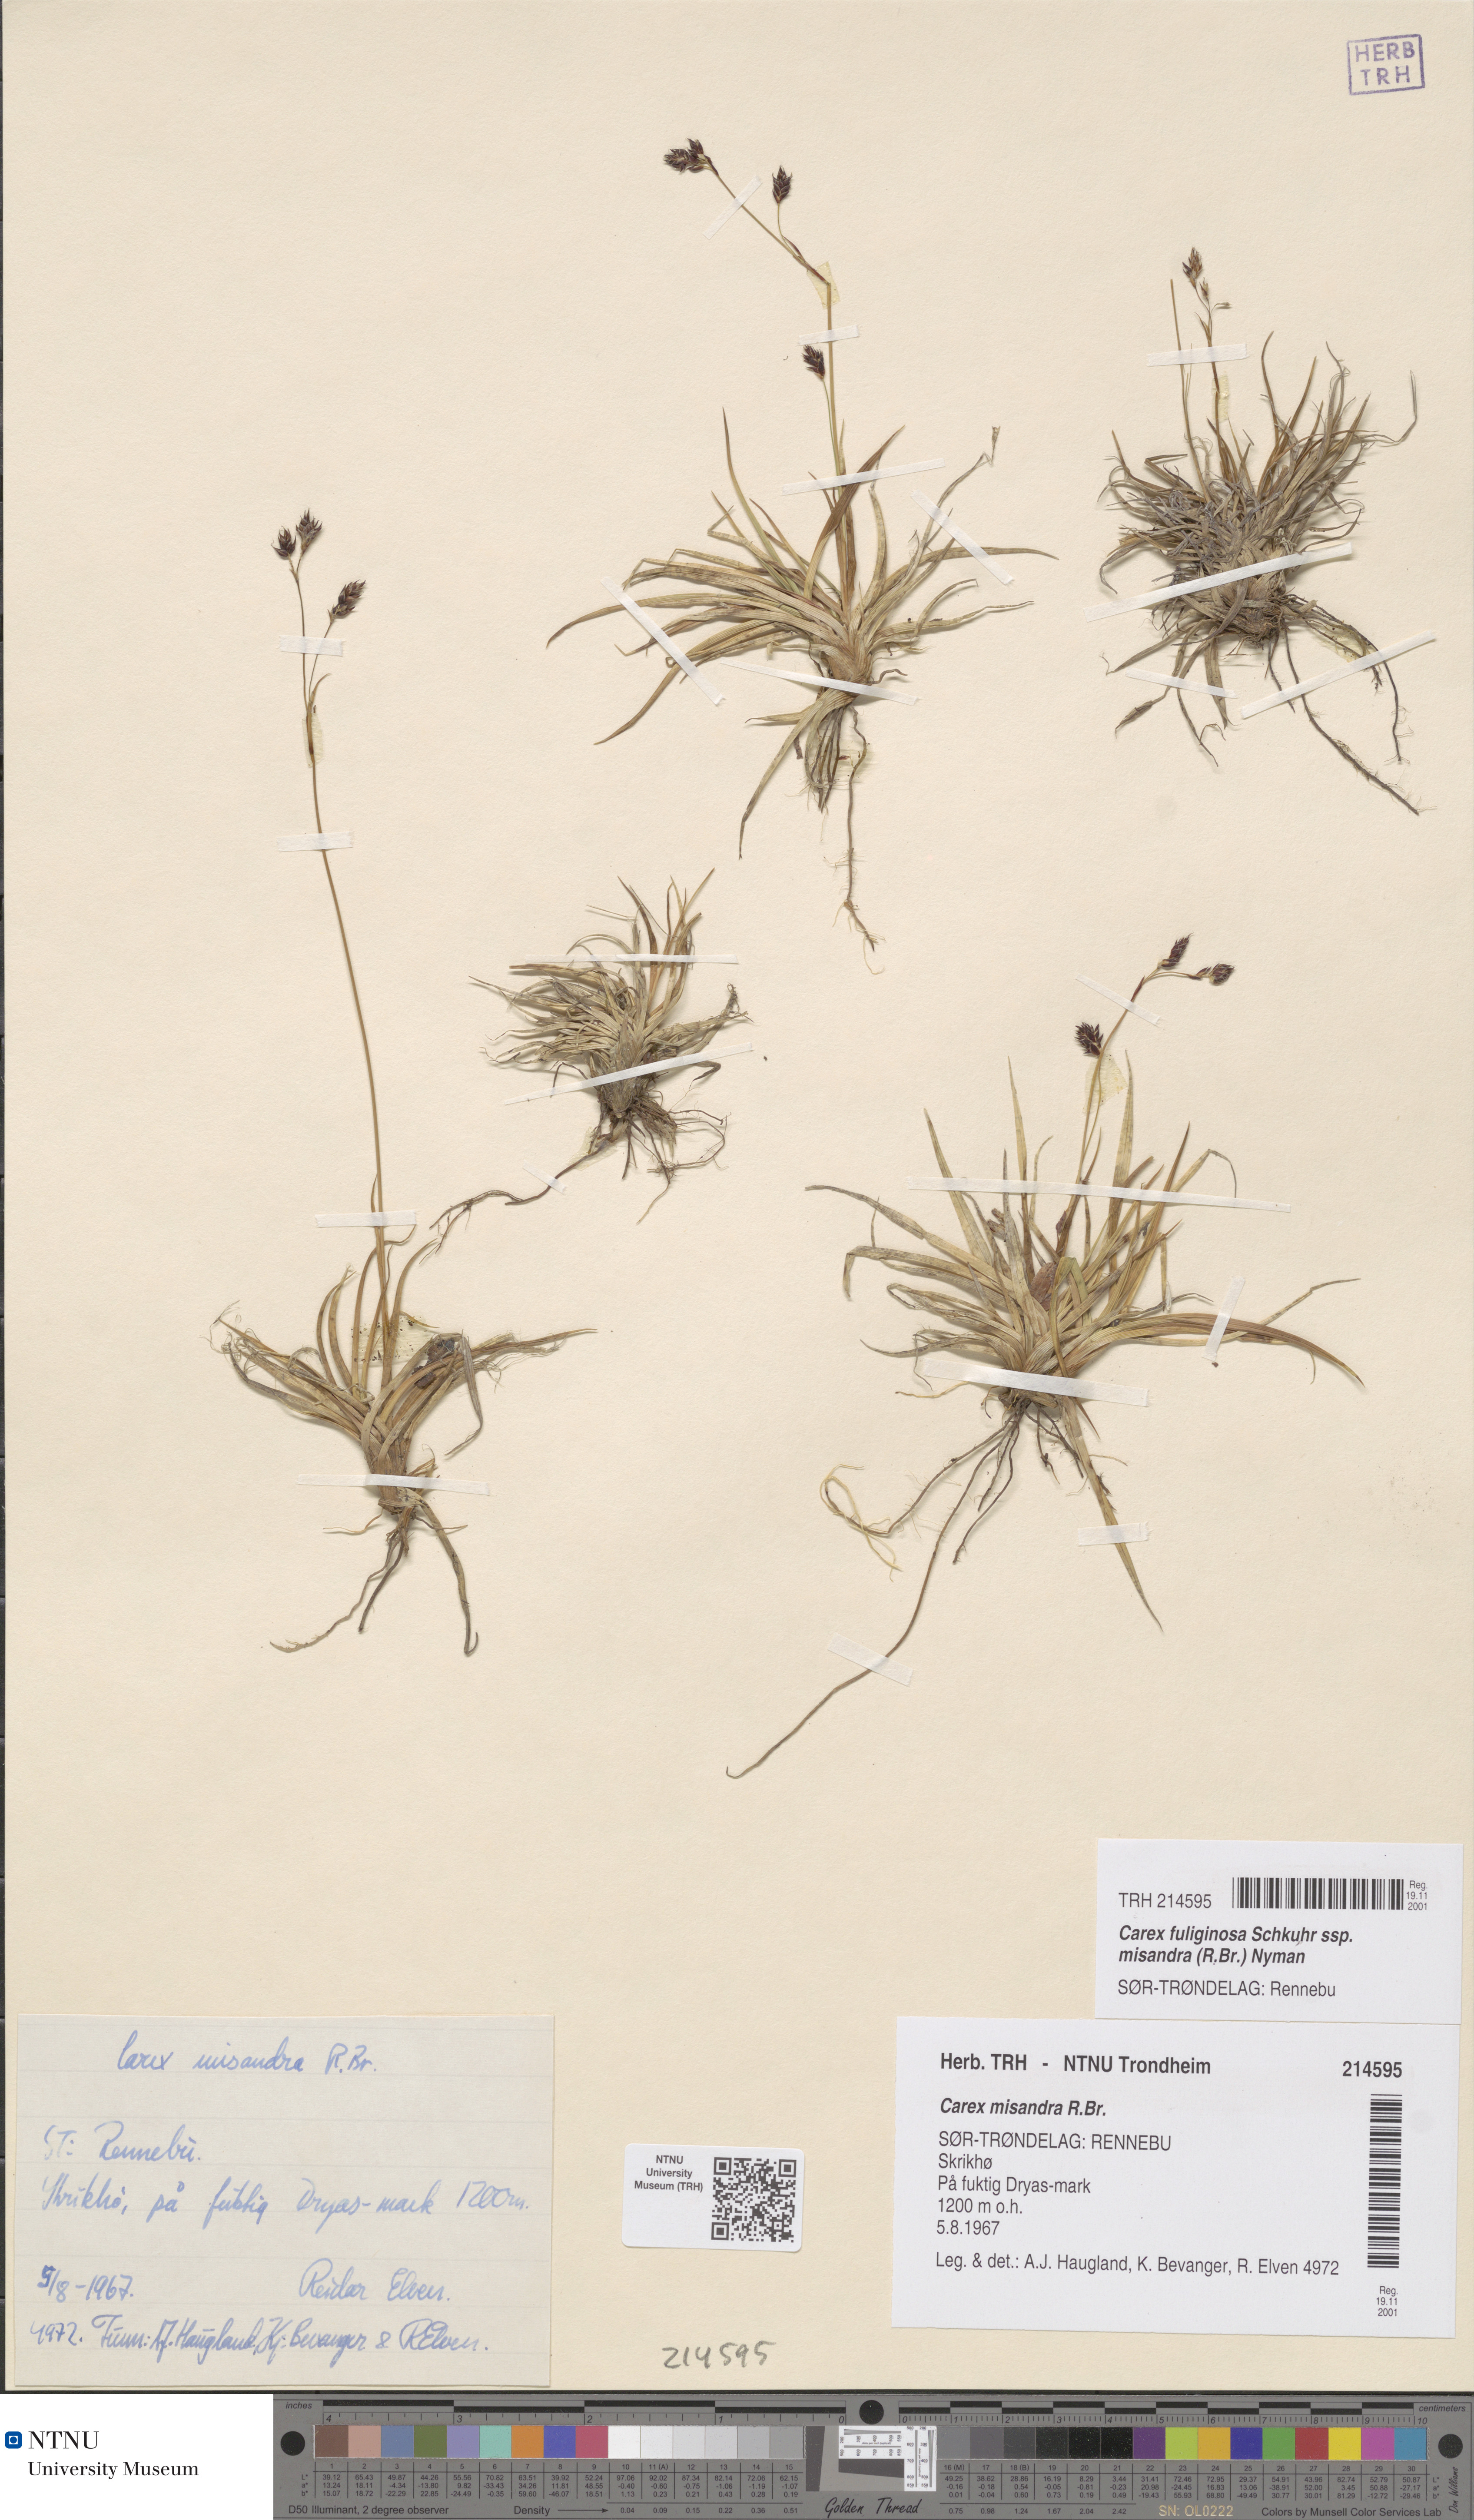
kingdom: Plantae
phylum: Tracheophyta
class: Liliopsida
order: Poales
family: Cyperaceae
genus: Carex
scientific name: Carex fuliginosa
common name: Few-flowered sedge
